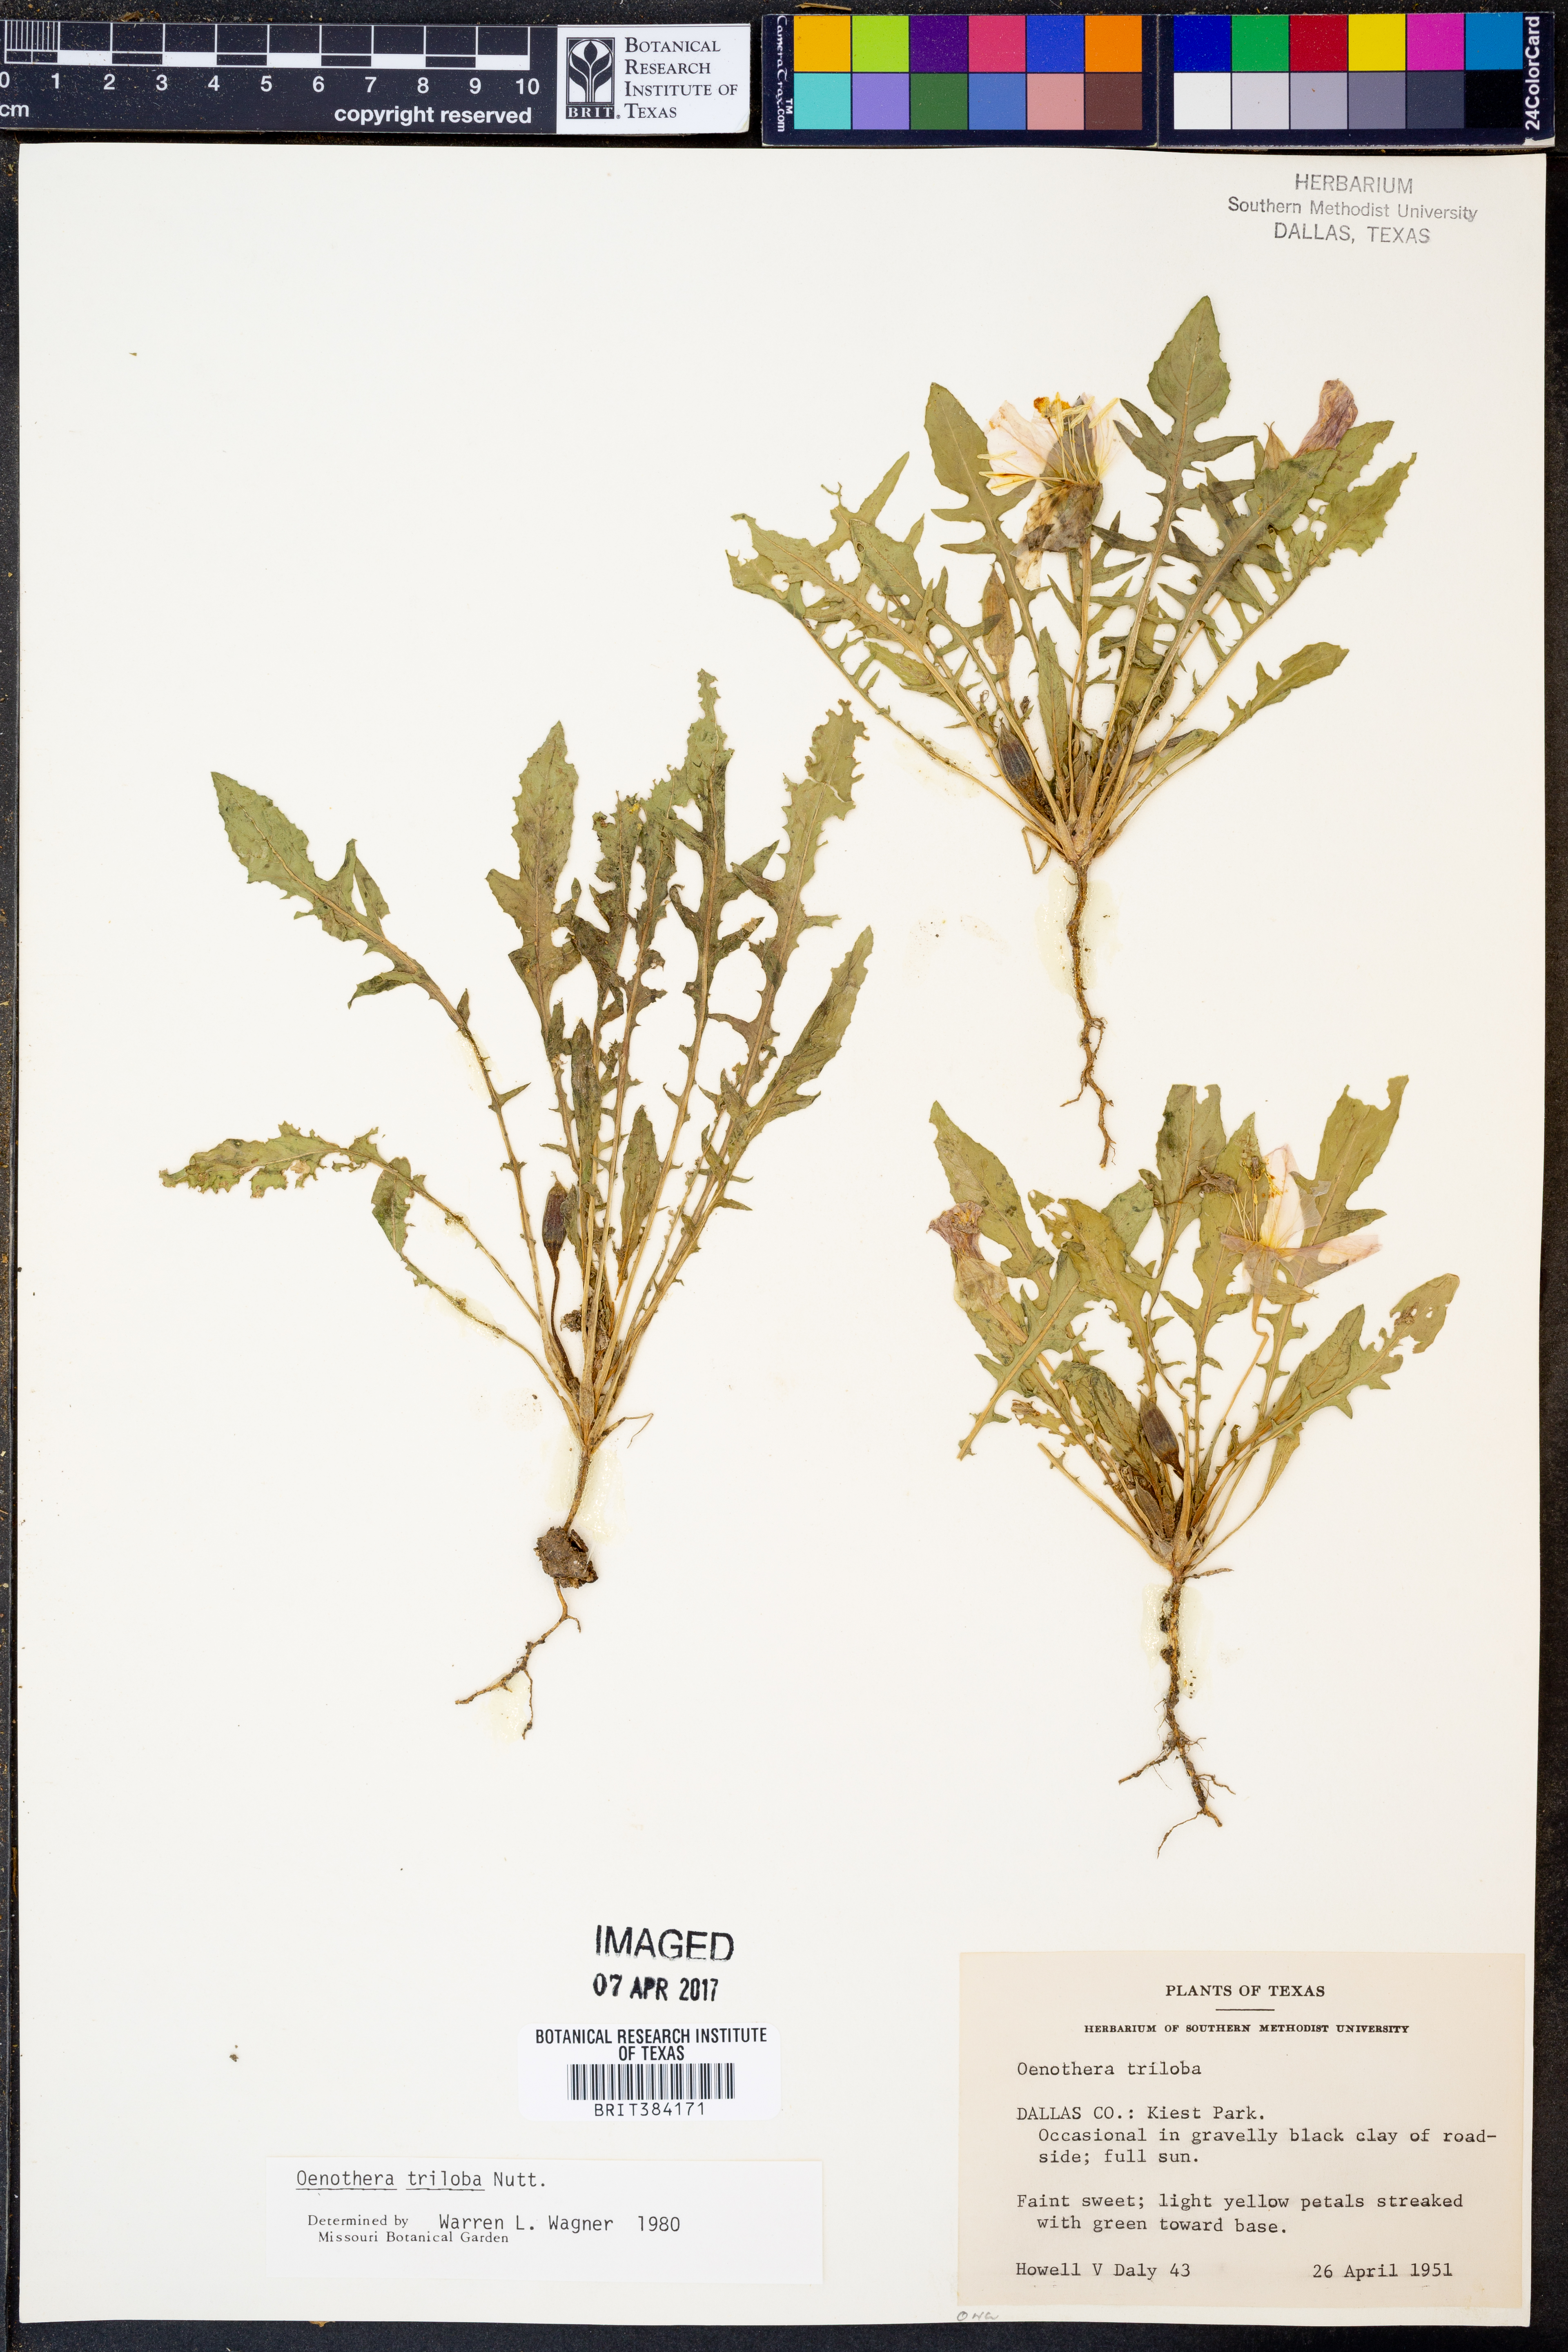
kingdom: Plantae
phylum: Tracheophyta
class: Magnoliopsida
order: Myrtales
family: Onagraceae
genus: Oenothera
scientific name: Oenothera triloba
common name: Sessile evening-primrose
